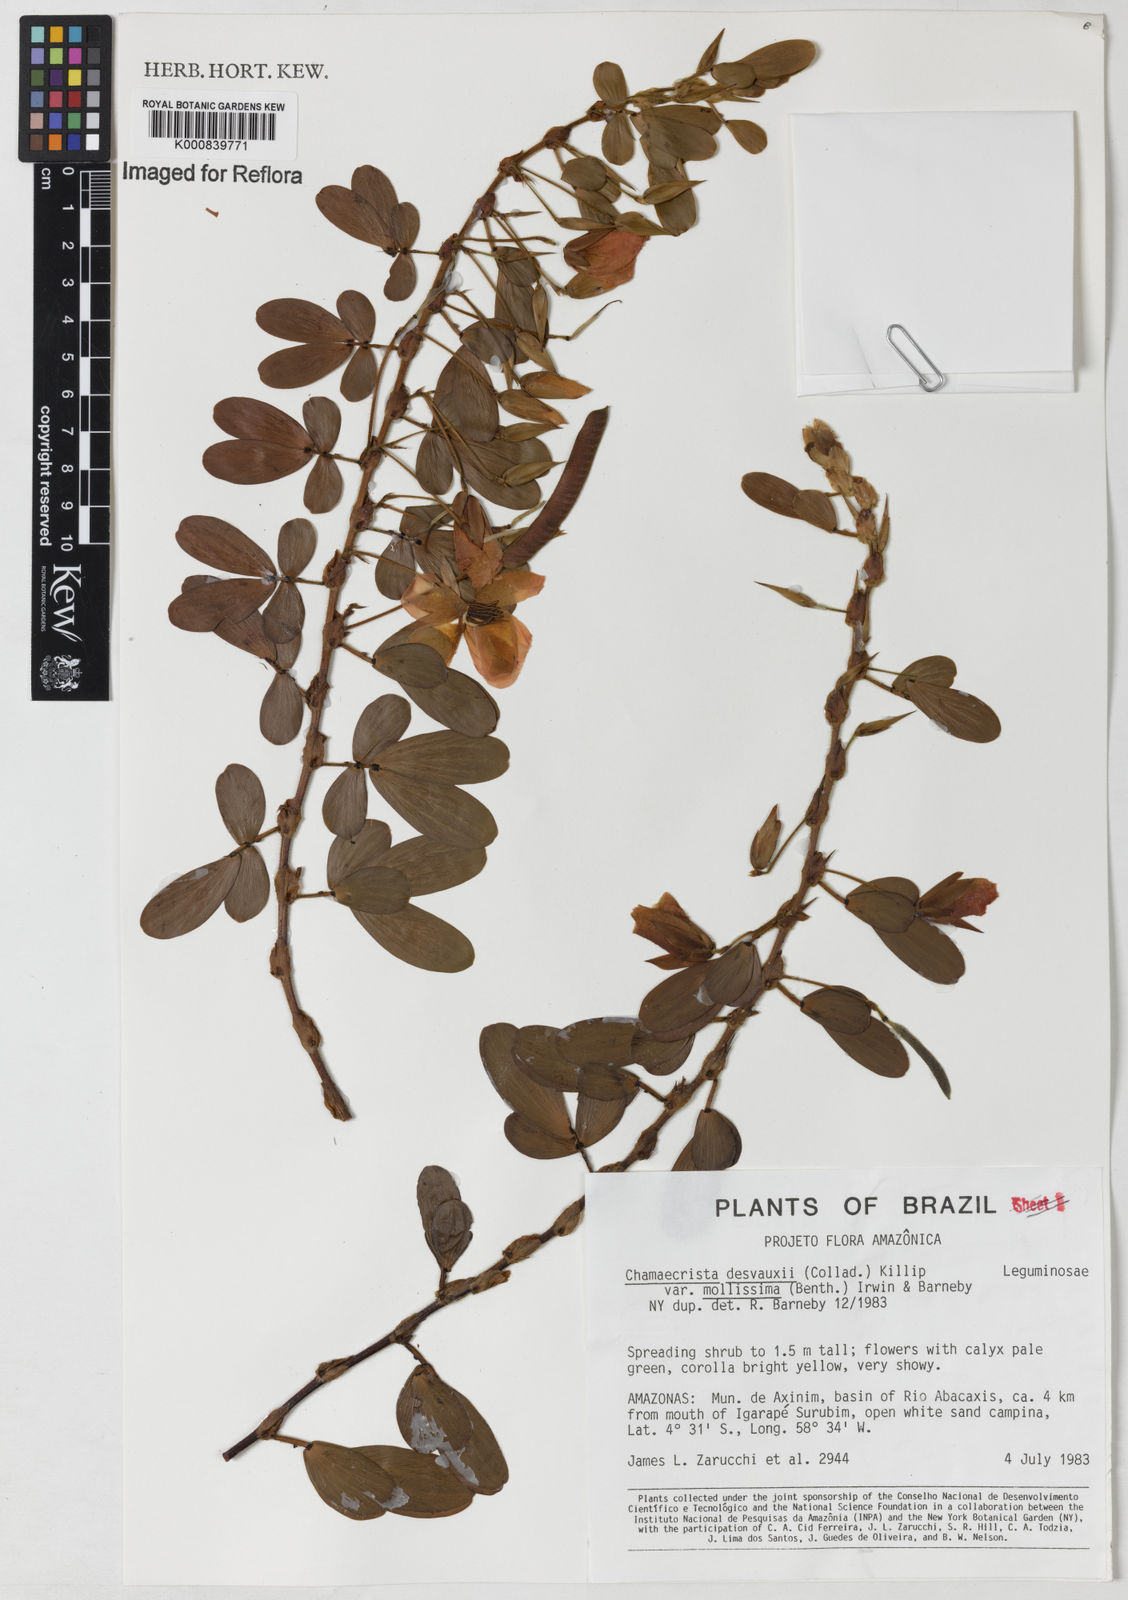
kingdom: Plantae
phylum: Tracheophyta
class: Magnoliopsida
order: Fabales
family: Fabaceae
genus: Chamaecrista
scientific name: Chamaecrista desvauxii
